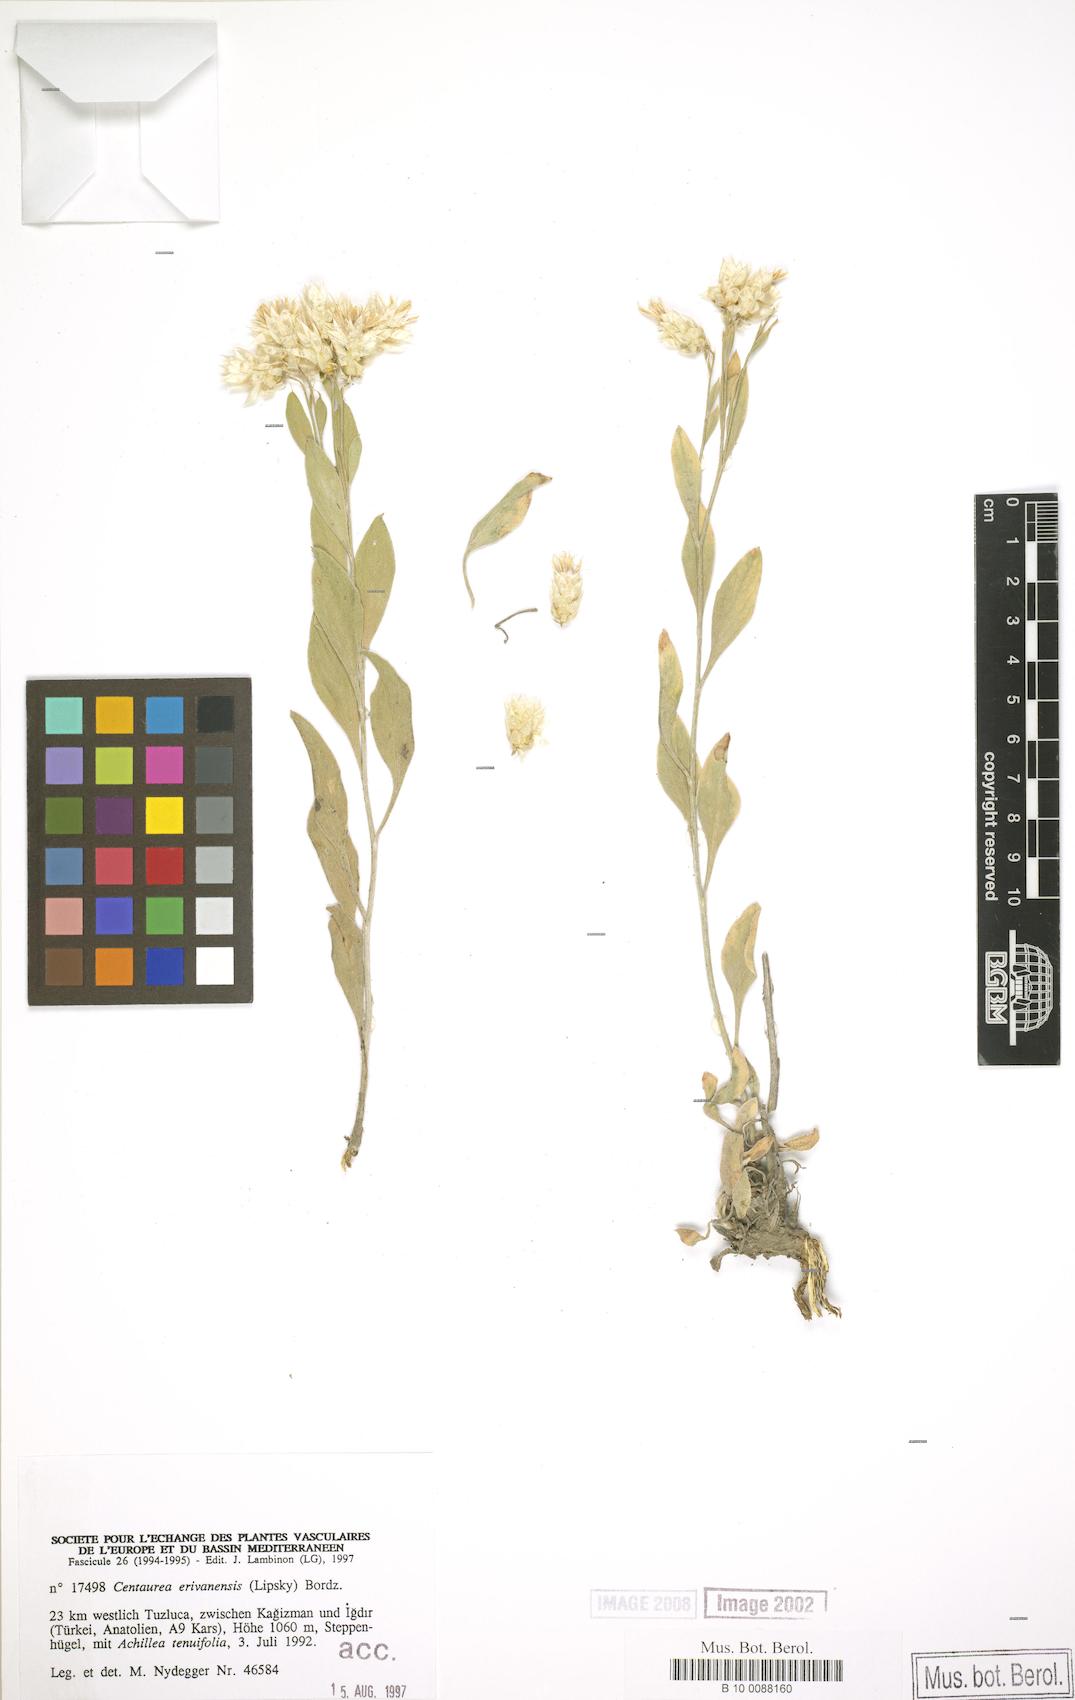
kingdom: Plantae
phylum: Tracheophyta
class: Magnoliopsida
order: Asterales
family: Asteraceae
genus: Psephellus
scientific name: Psephellus erivanensis
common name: Yerevanian centaury
